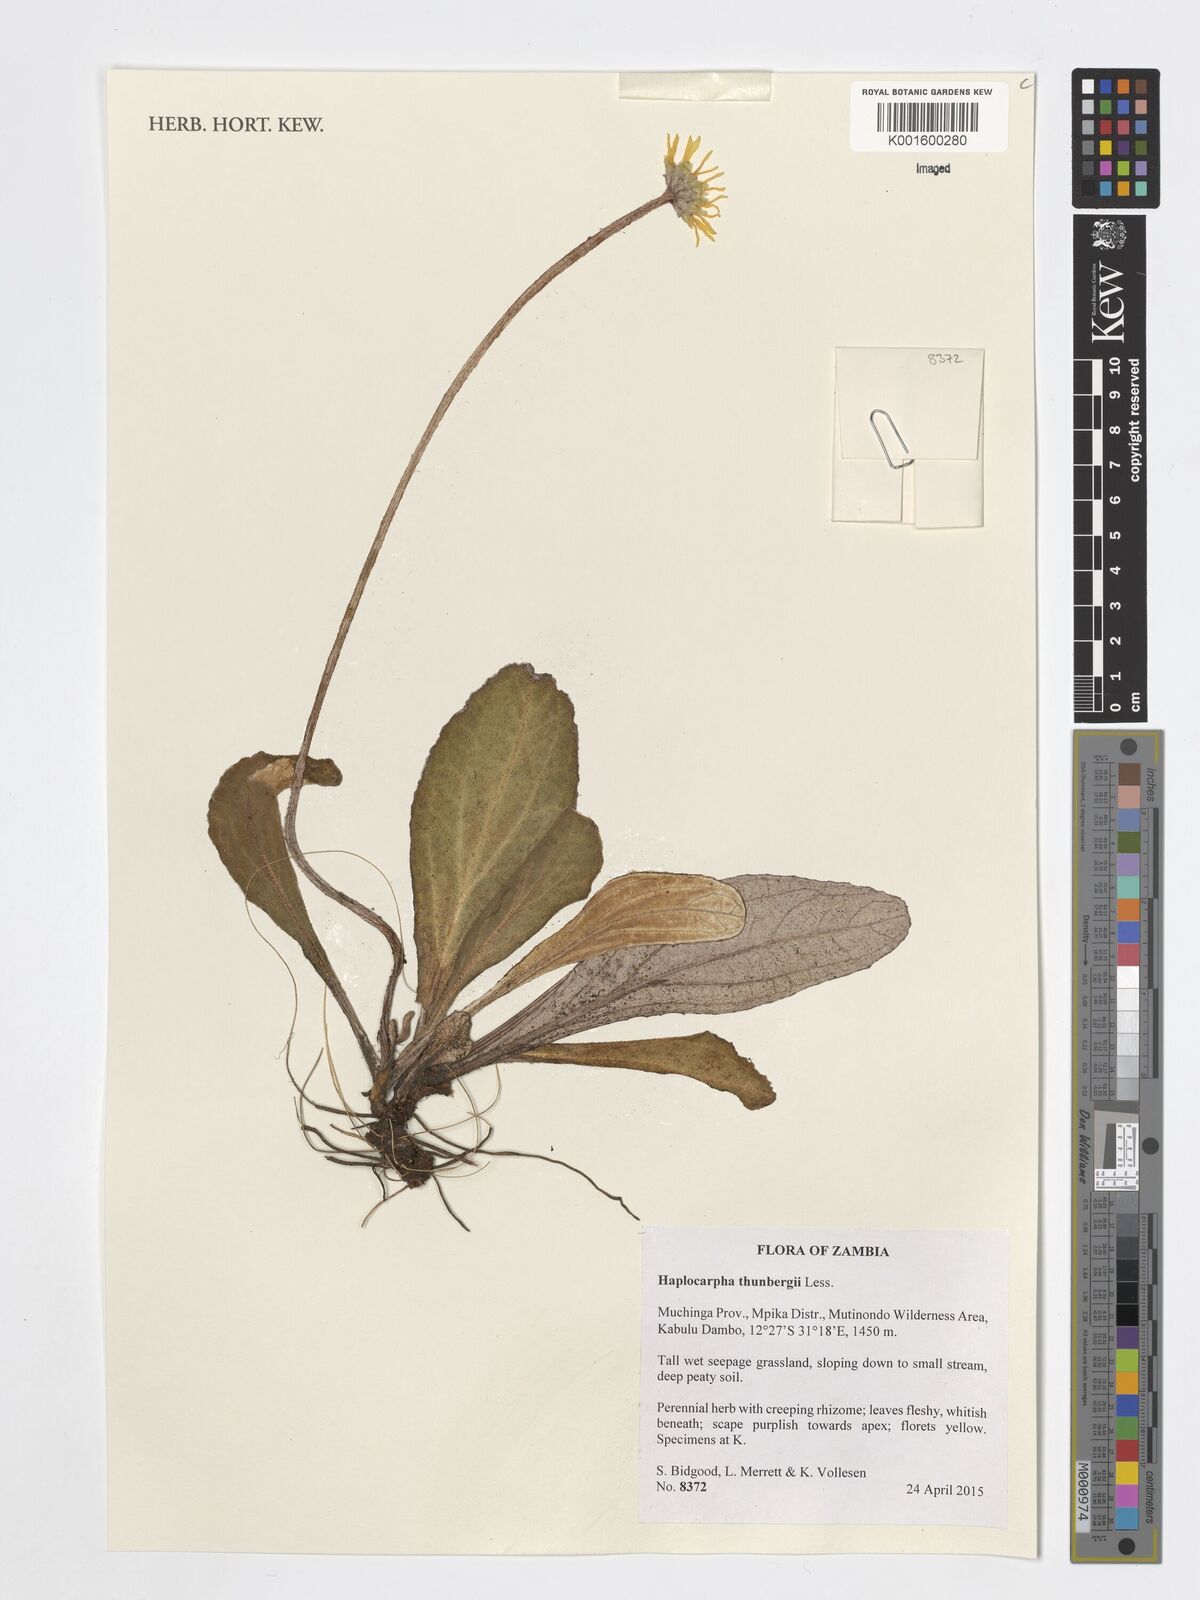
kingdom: Plantae
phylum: Tracheophyta
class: Magnoliopsida
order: Asterales
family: Asteraceae
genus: Haplocarpha
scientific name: Haplocarpha scaposa
